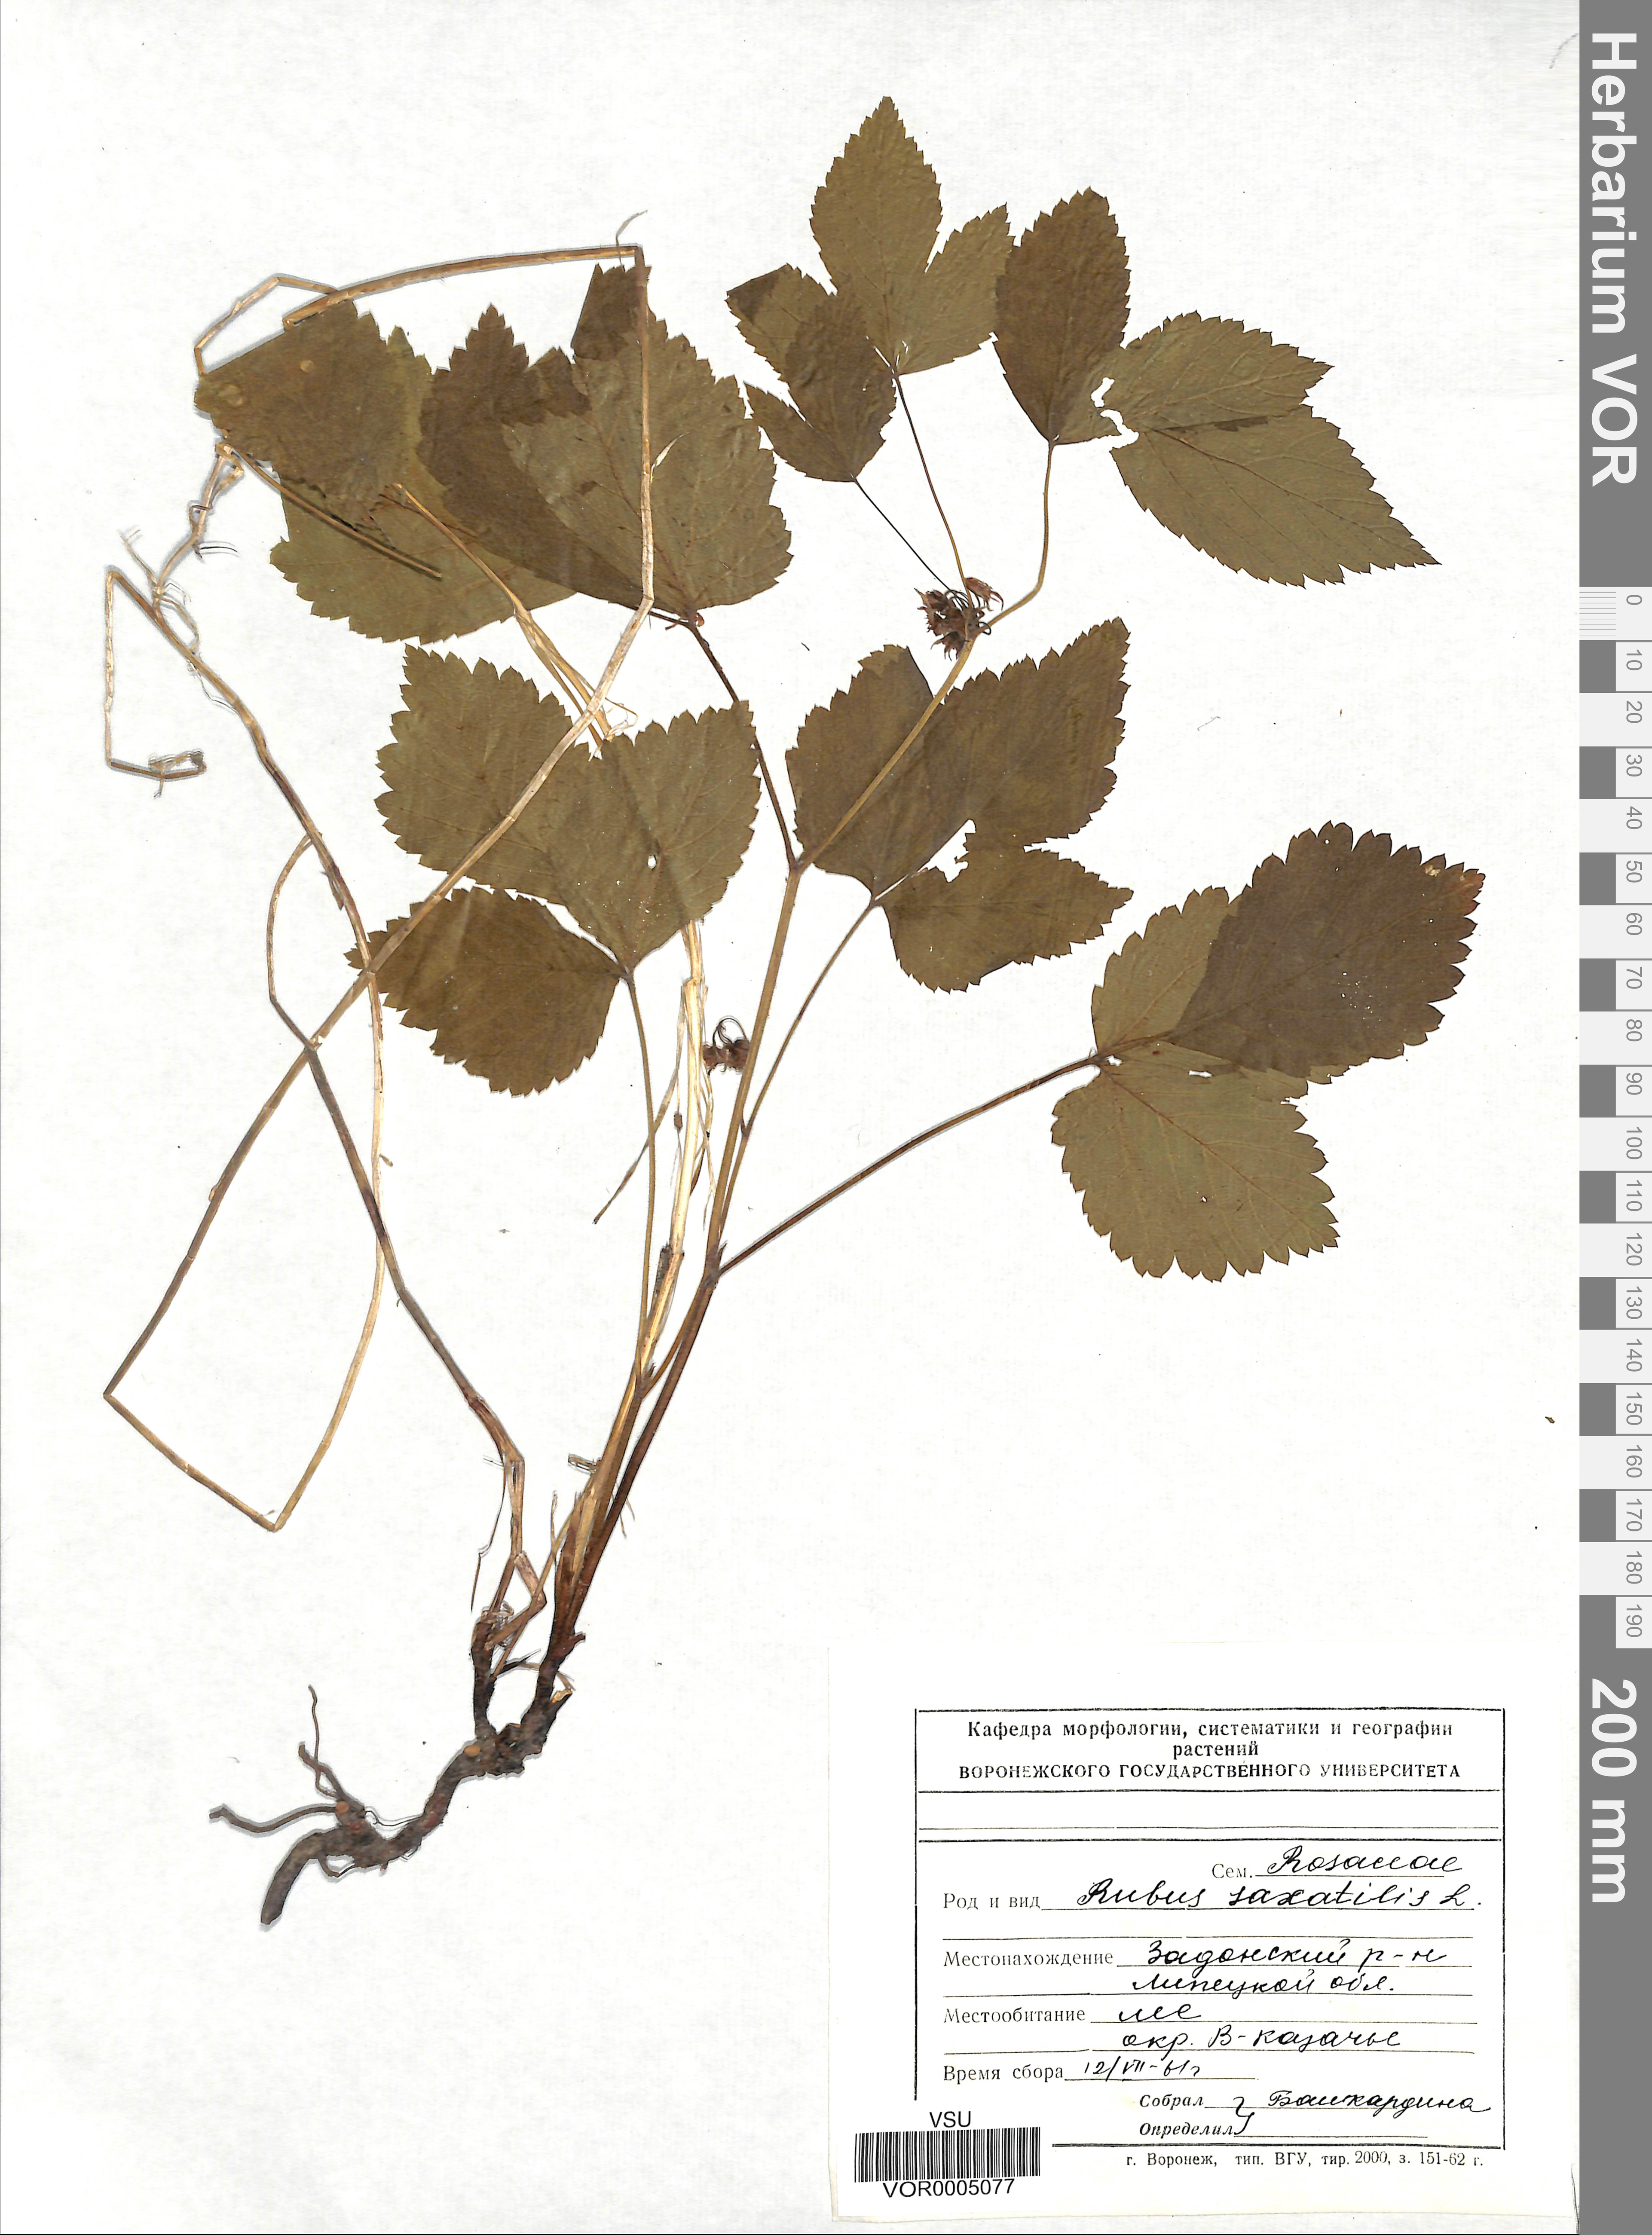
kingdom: Plantae
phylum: Tracheophyta
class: Magnoliopsida
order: Rosales
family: Rosaceae
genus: Rubus
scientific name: Rubus saxatilis
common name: Stone bramble
